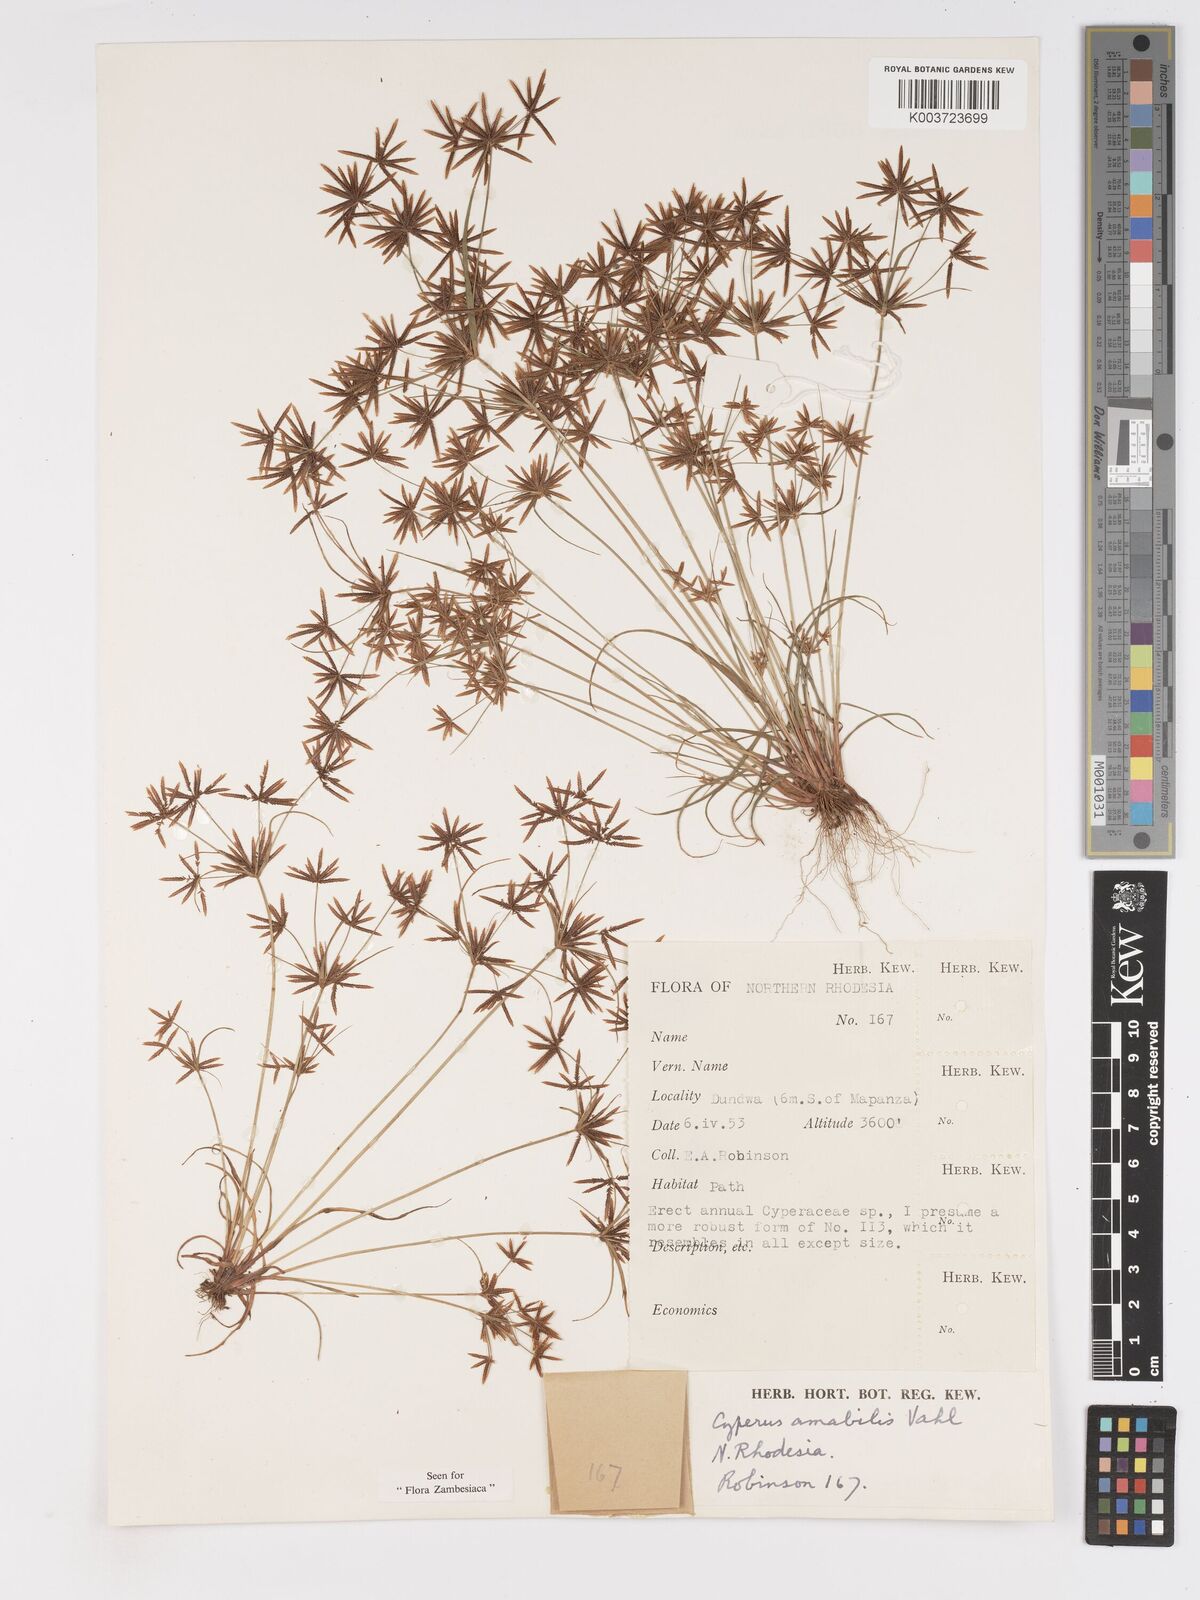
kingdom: Plantae
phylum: Tracheophyta
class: Liliopsida
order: Poales
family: Cyperaceae
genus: Cyperus
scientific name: Cyperus amabilis
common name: Foothill flat sedge
